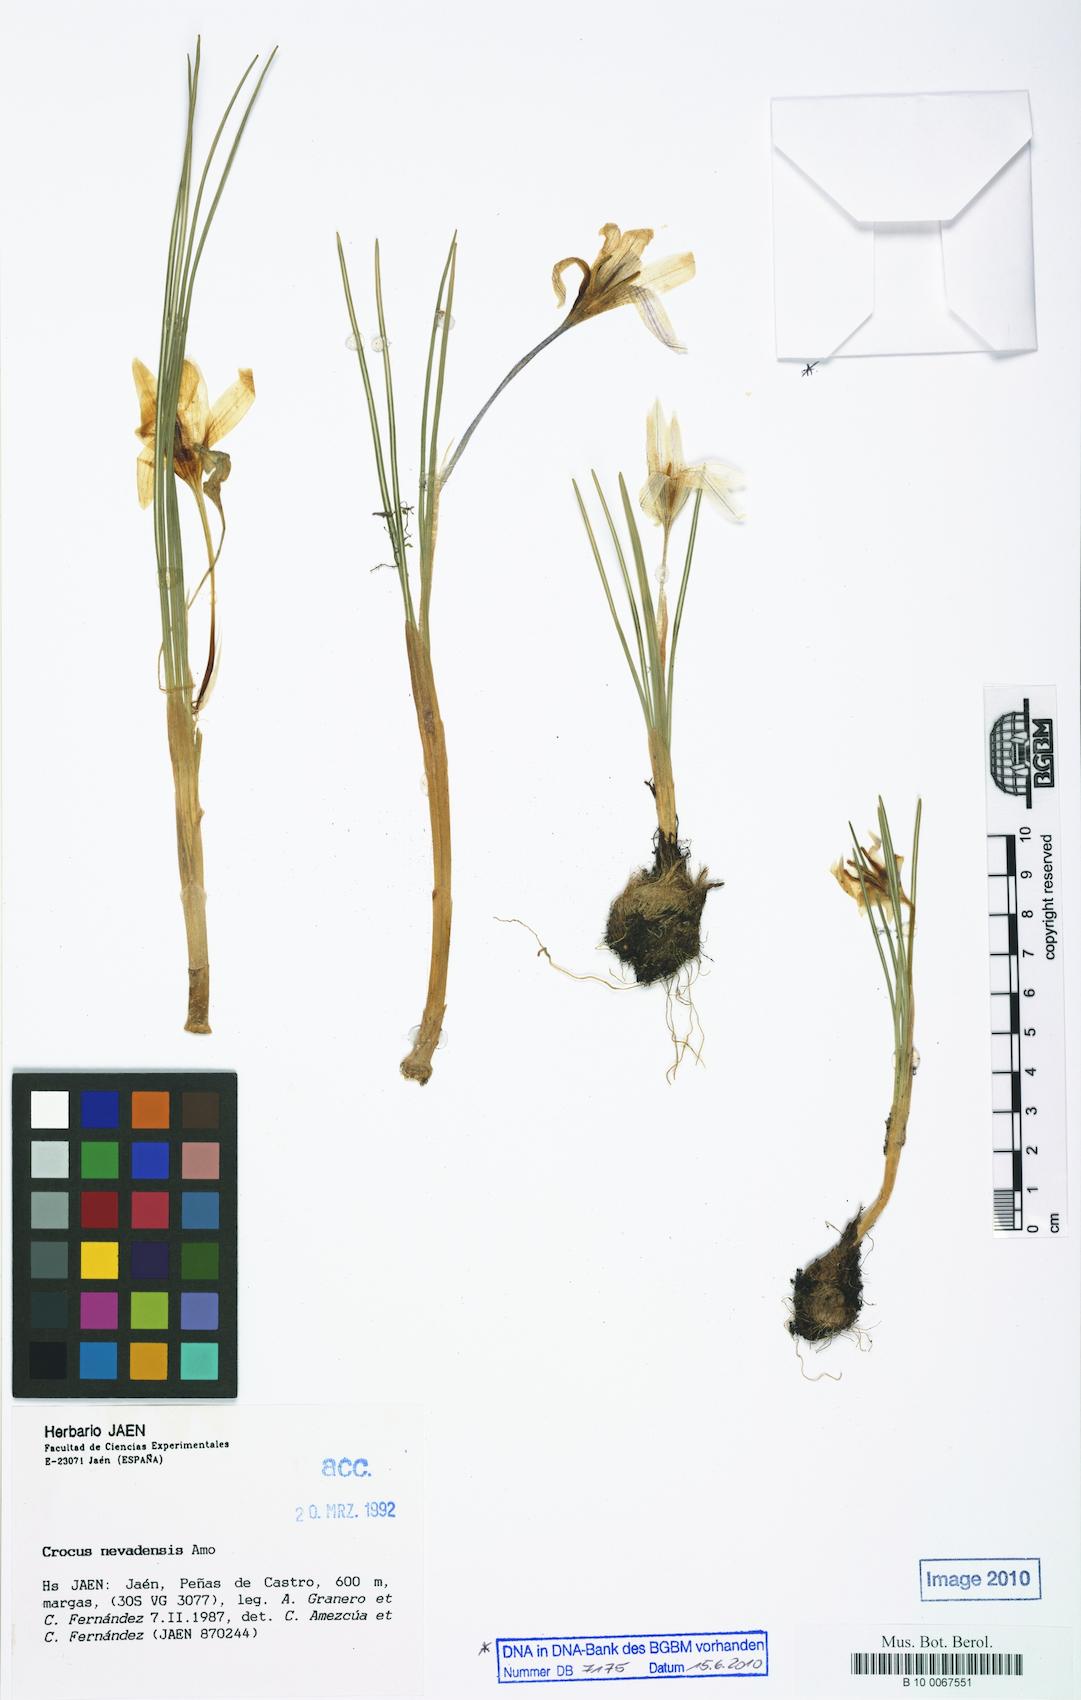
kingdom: Plantae
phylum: Tracheophyta
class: Liliopsida
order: Asparagales
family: Iridaceae
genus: Crocus
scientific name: Crocus nevadensis
